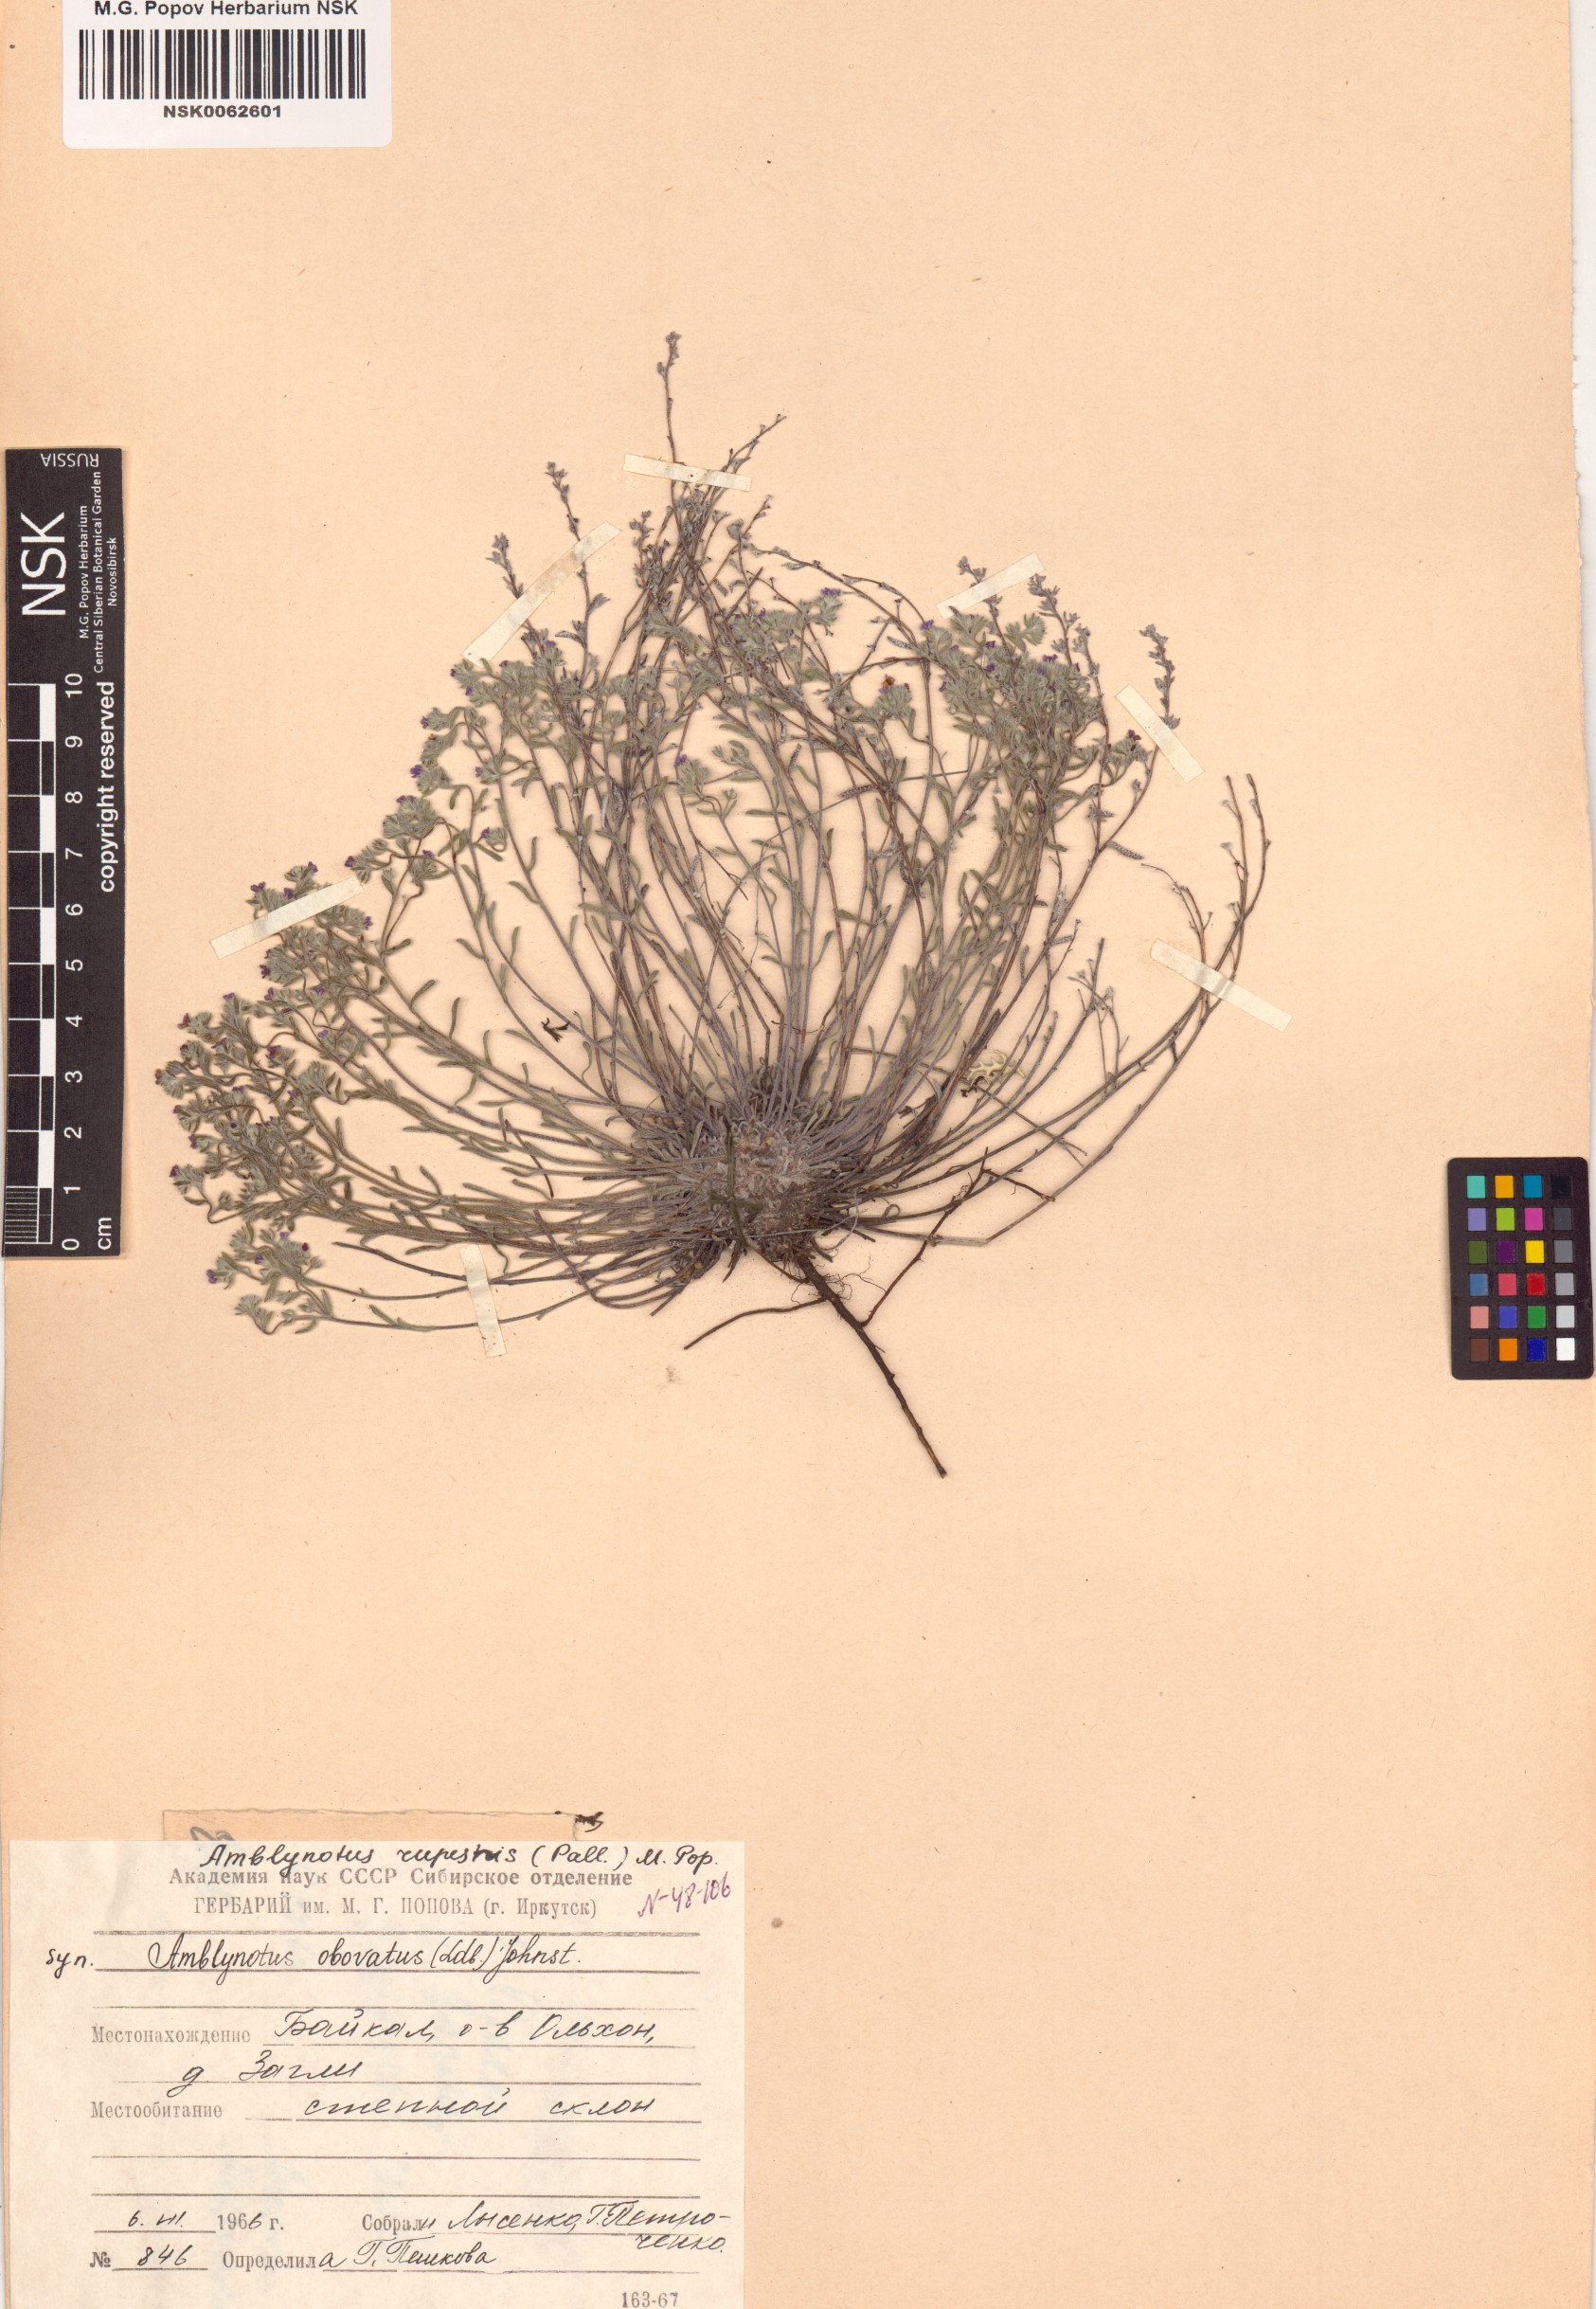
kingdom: Plantae
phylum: Tracheophyta
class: Magnoliopsida
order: Boraginales
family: Boraginaceae
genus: Eritrichium
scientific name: Eritrichium rupestre
